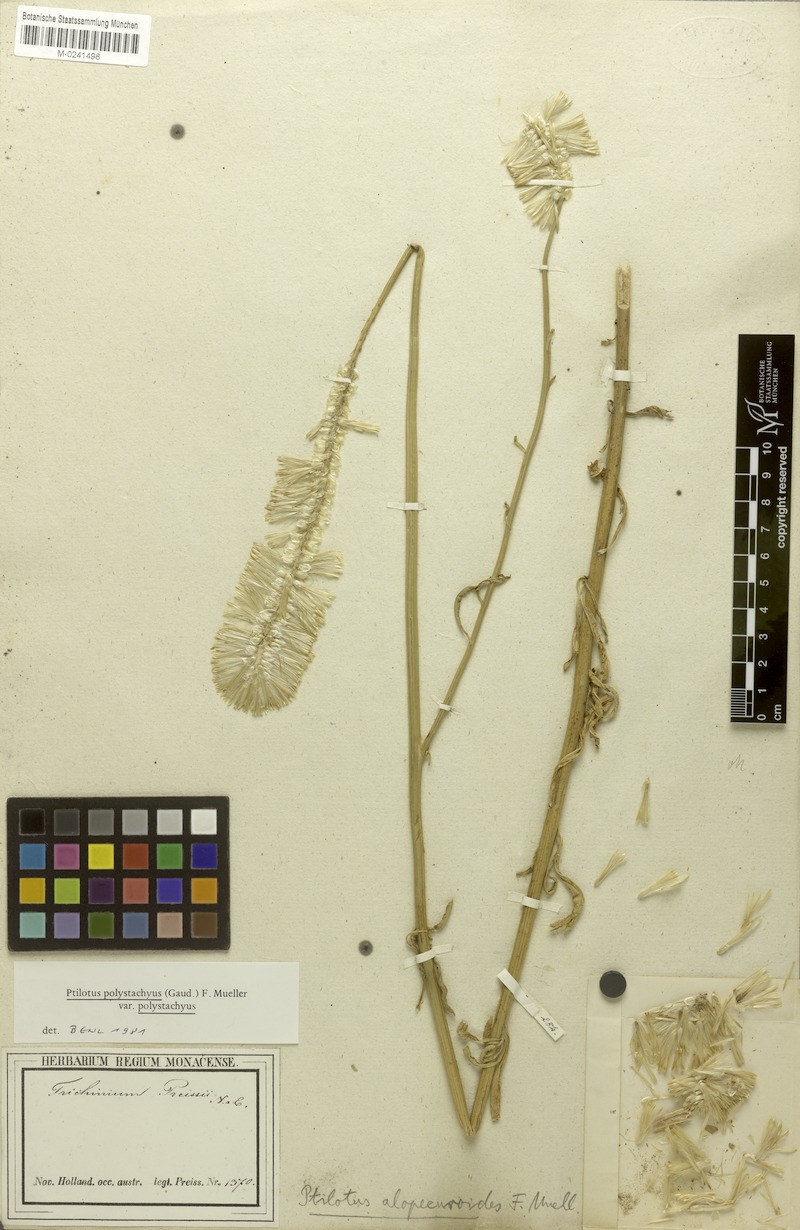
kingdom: Plantae
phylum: Tracheophyta
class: Magnoliopsida
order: Caryophyllales
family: Amaranthaceae
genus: Ptilotus
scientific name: Ptilotus polystachyus
